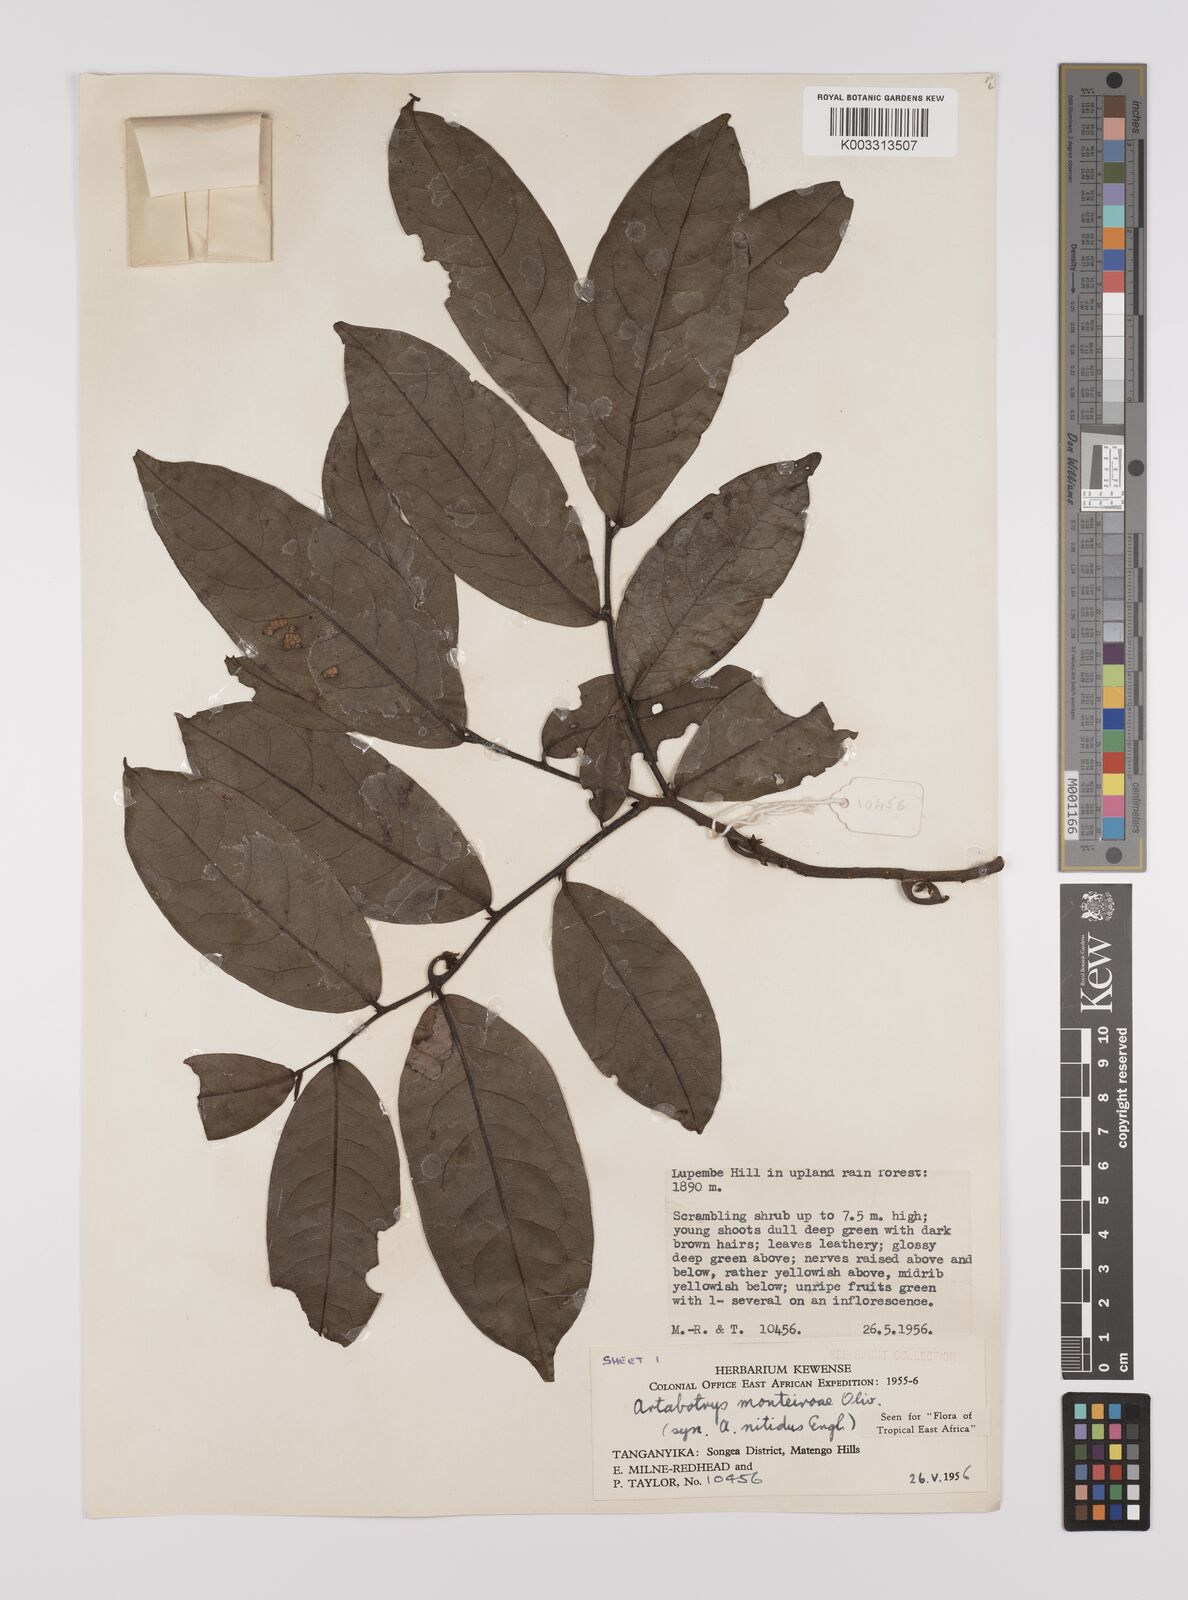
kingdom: Plantae
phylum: Tracheophyta
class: Magnoliopsida
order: Magnoliales
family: Annonaceae
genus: Artabotrys
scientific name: Artabotrys monteiroae
